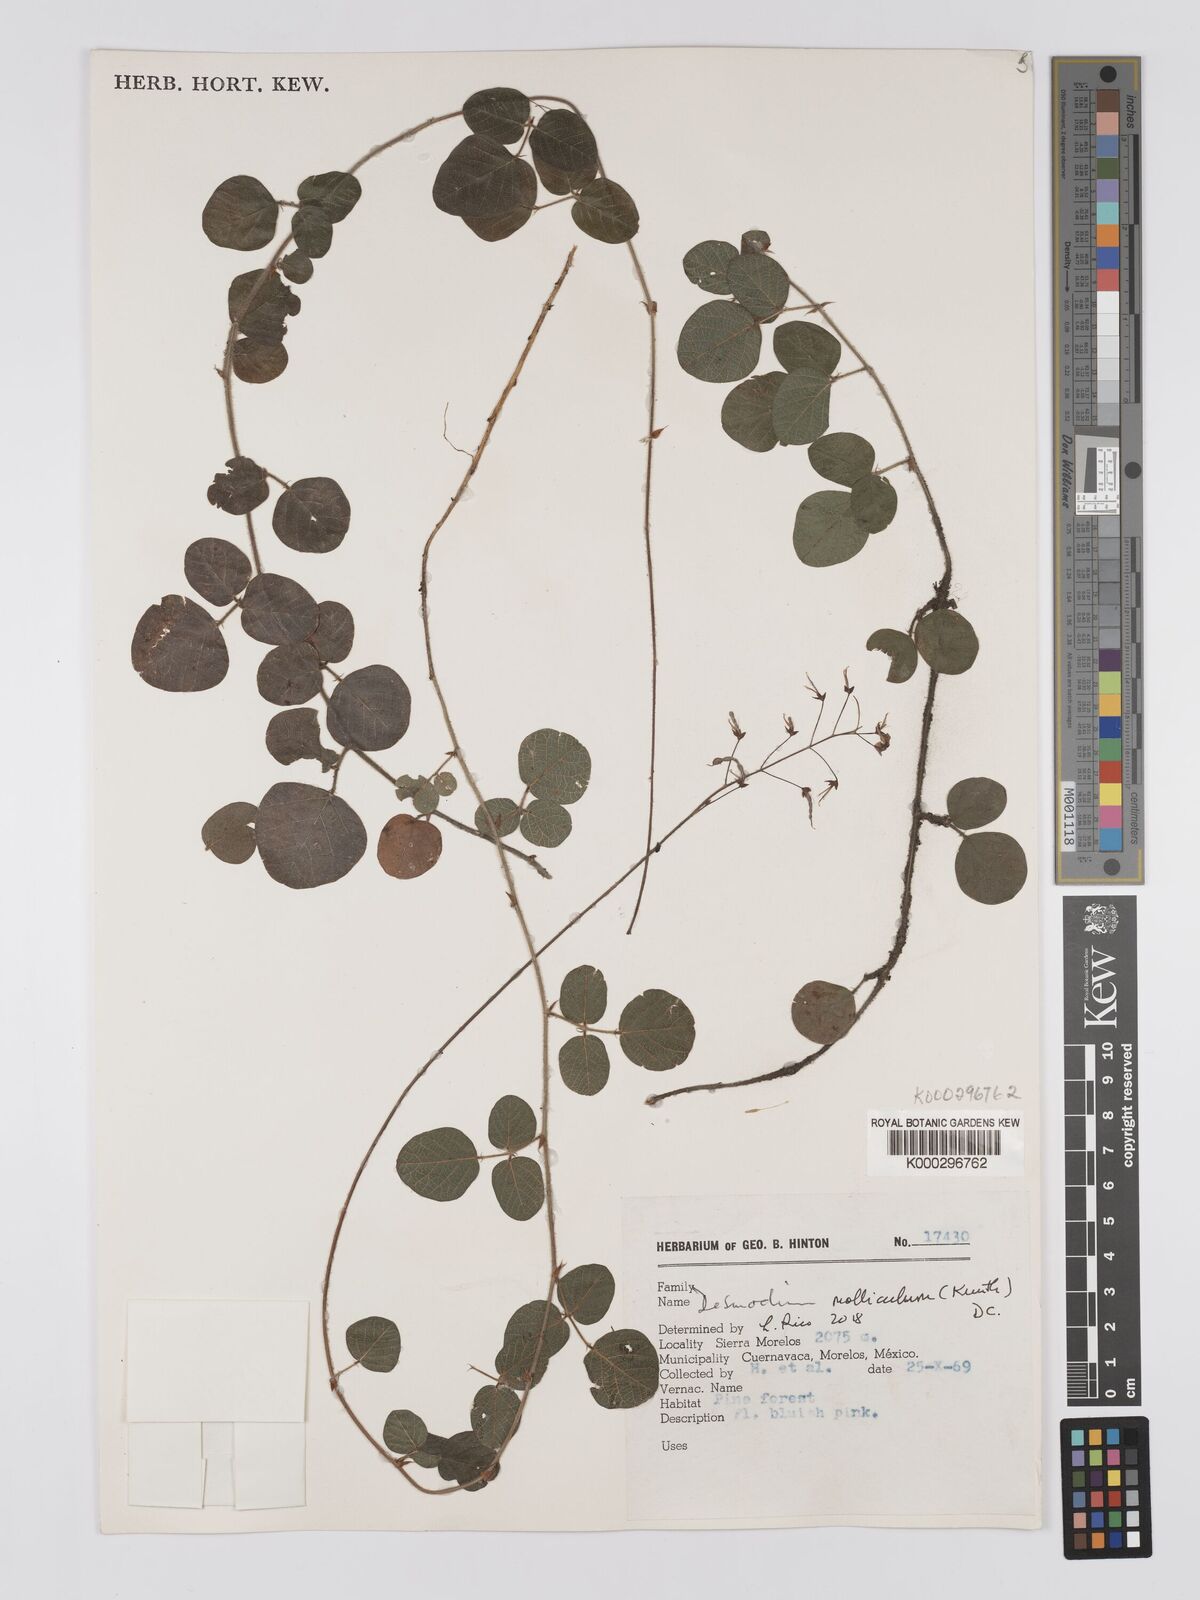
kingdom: Plantae
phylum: Tracheophyta
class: Magnoliopsida
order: Fabales
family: Fabaceae
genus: Desmodium
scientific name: Desmodium molliculum
